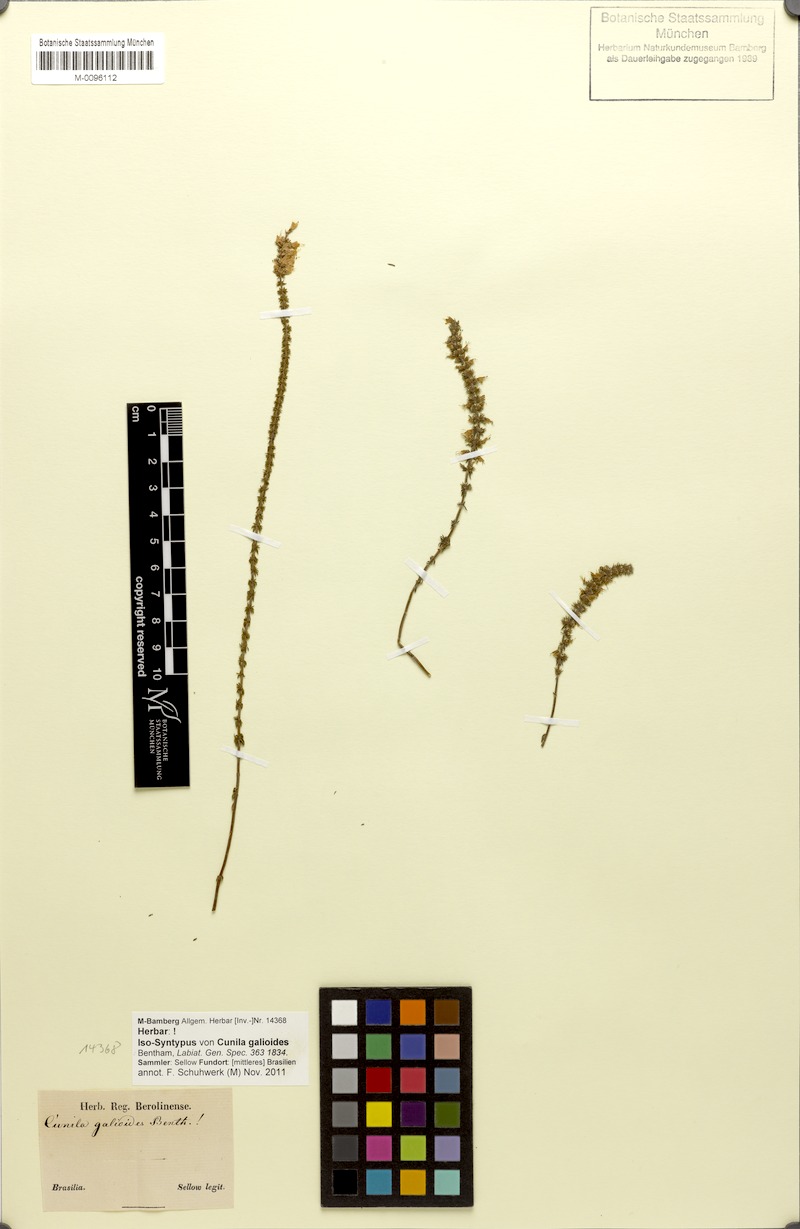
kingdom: Plantae
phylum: Tracheophyta
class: Magnoliopsida
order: Lamiales
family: Lamiaceae
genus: Cunila
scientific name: Cunila galioides
